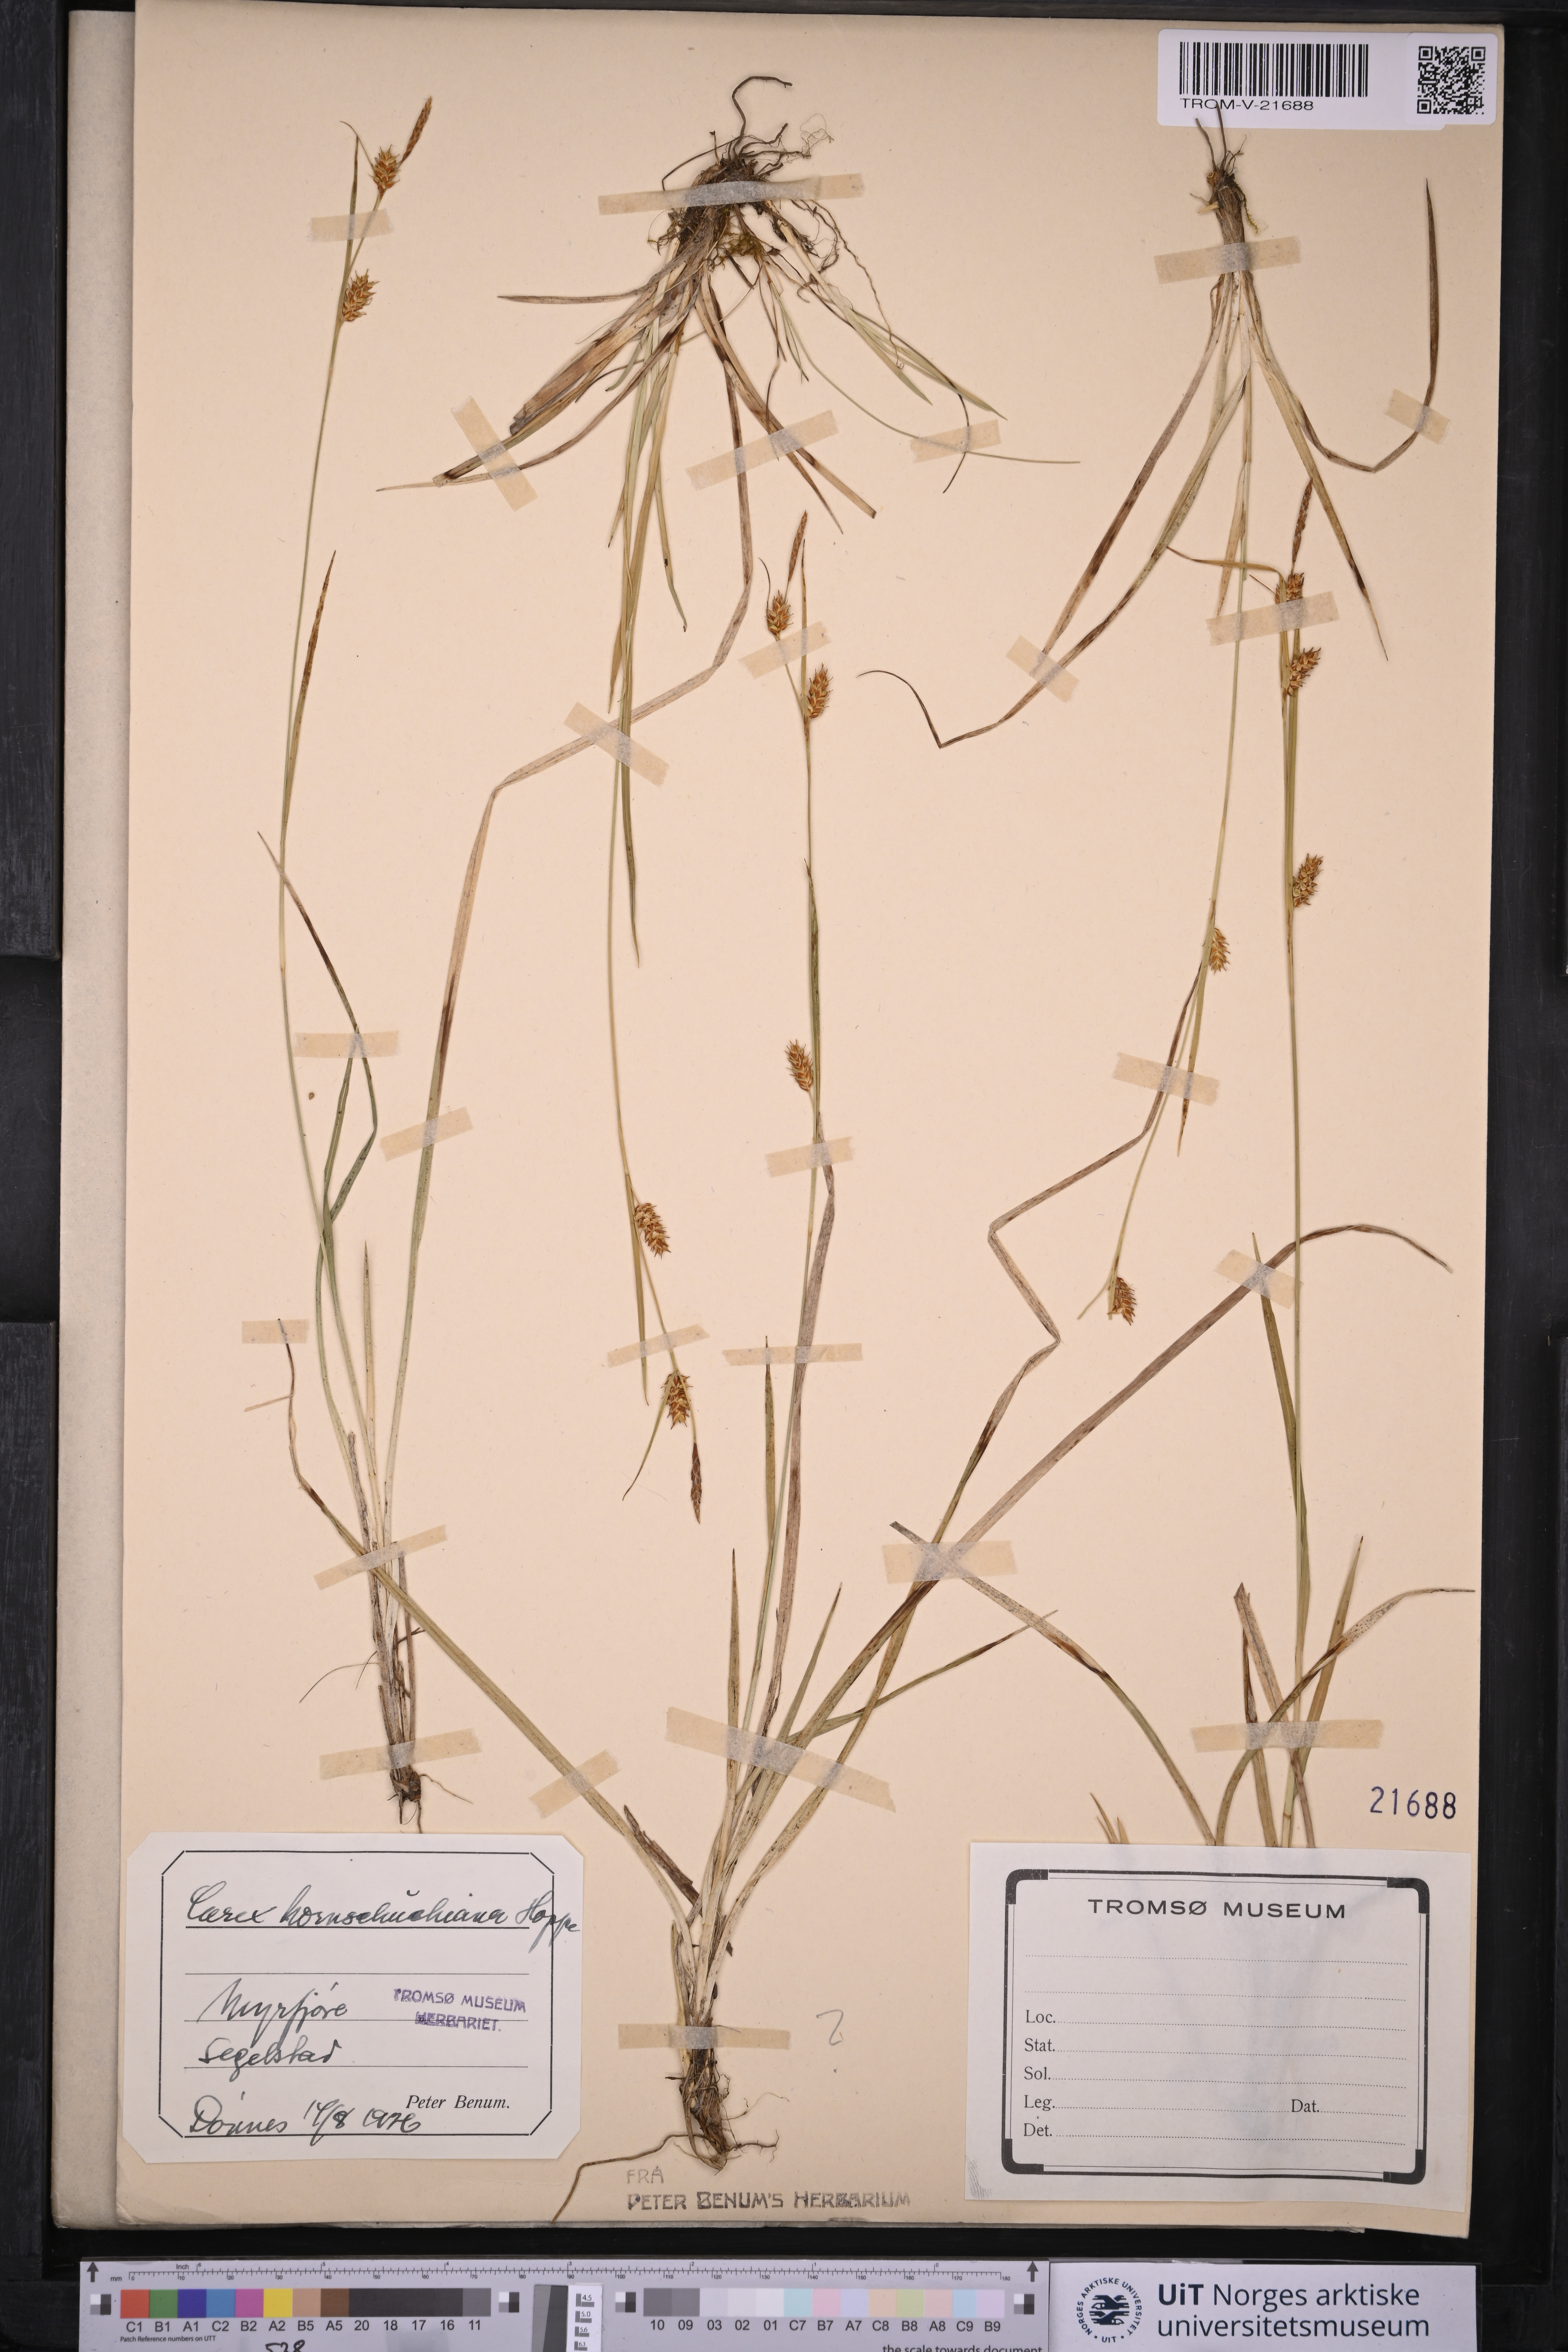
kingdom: Plantae
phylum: Tracheophyta
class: Liliopsida
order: Poales
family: Cyperaceae
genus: Carex
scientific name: Carex hostiana
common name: Tawny sedge
